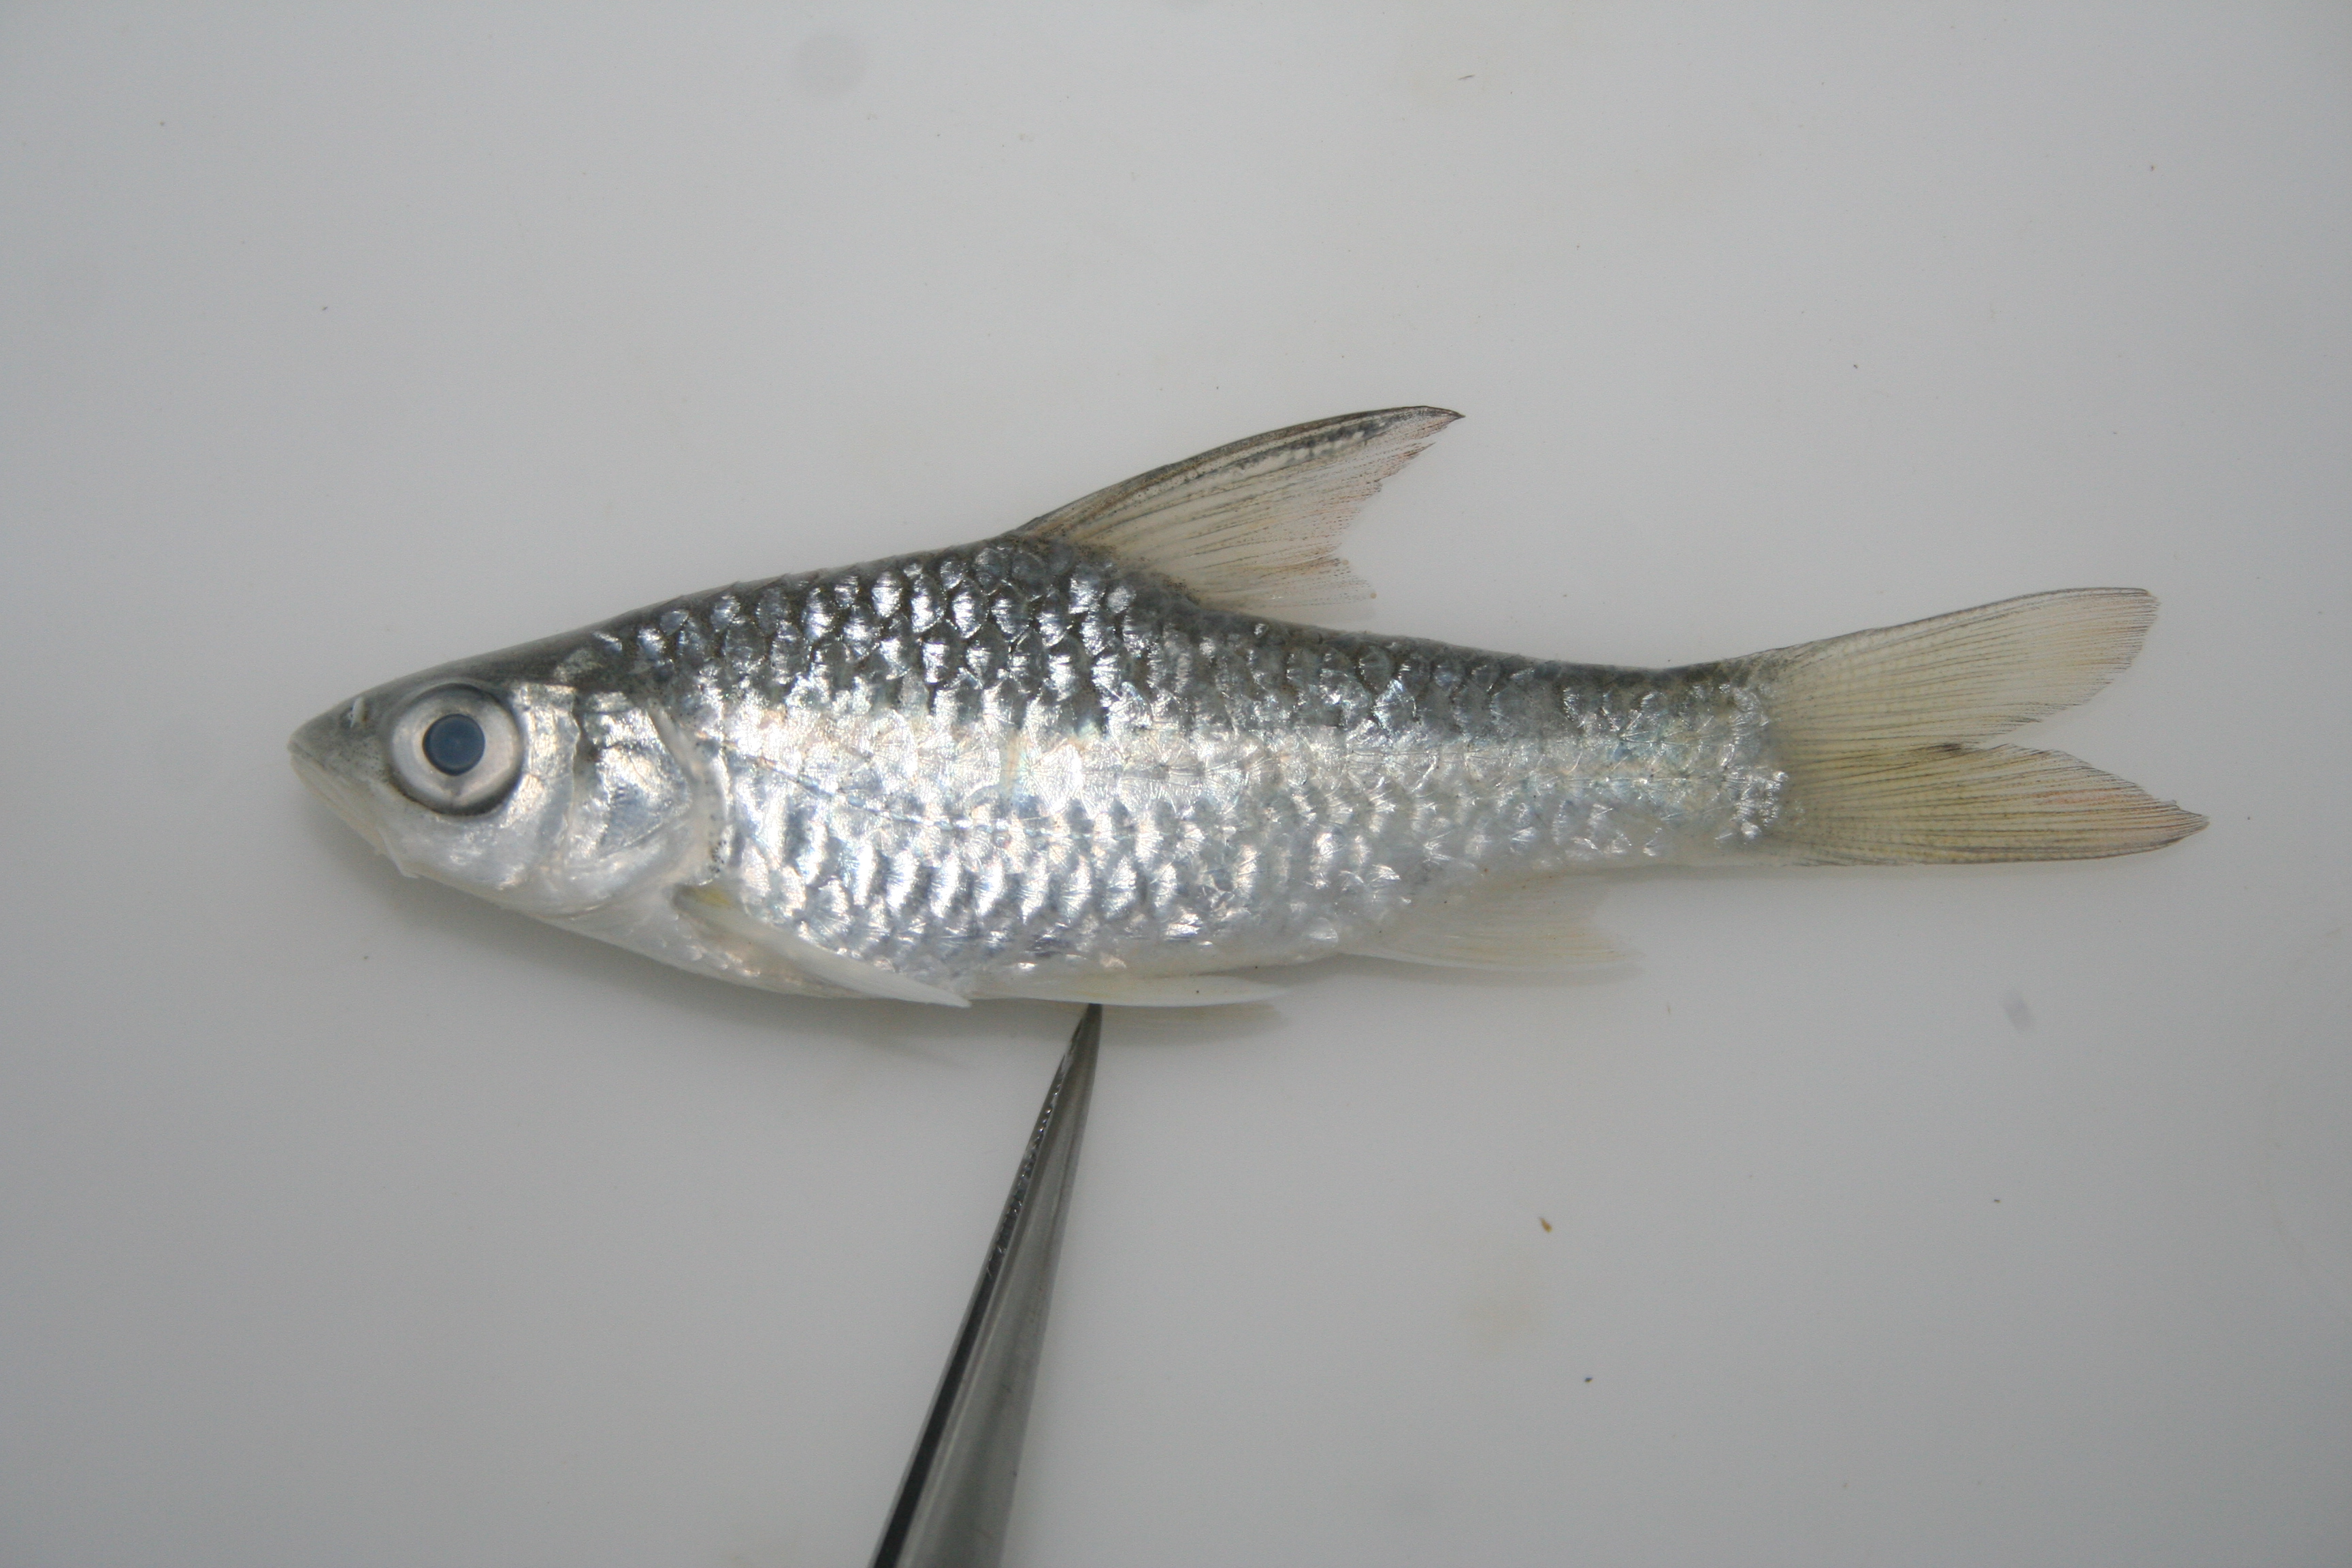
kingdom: Animalia
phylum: Chordata
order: Cypriniformes
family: Cyprinidae
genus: Enteromius
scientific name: Enteromius mattozi
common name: Papermouth
